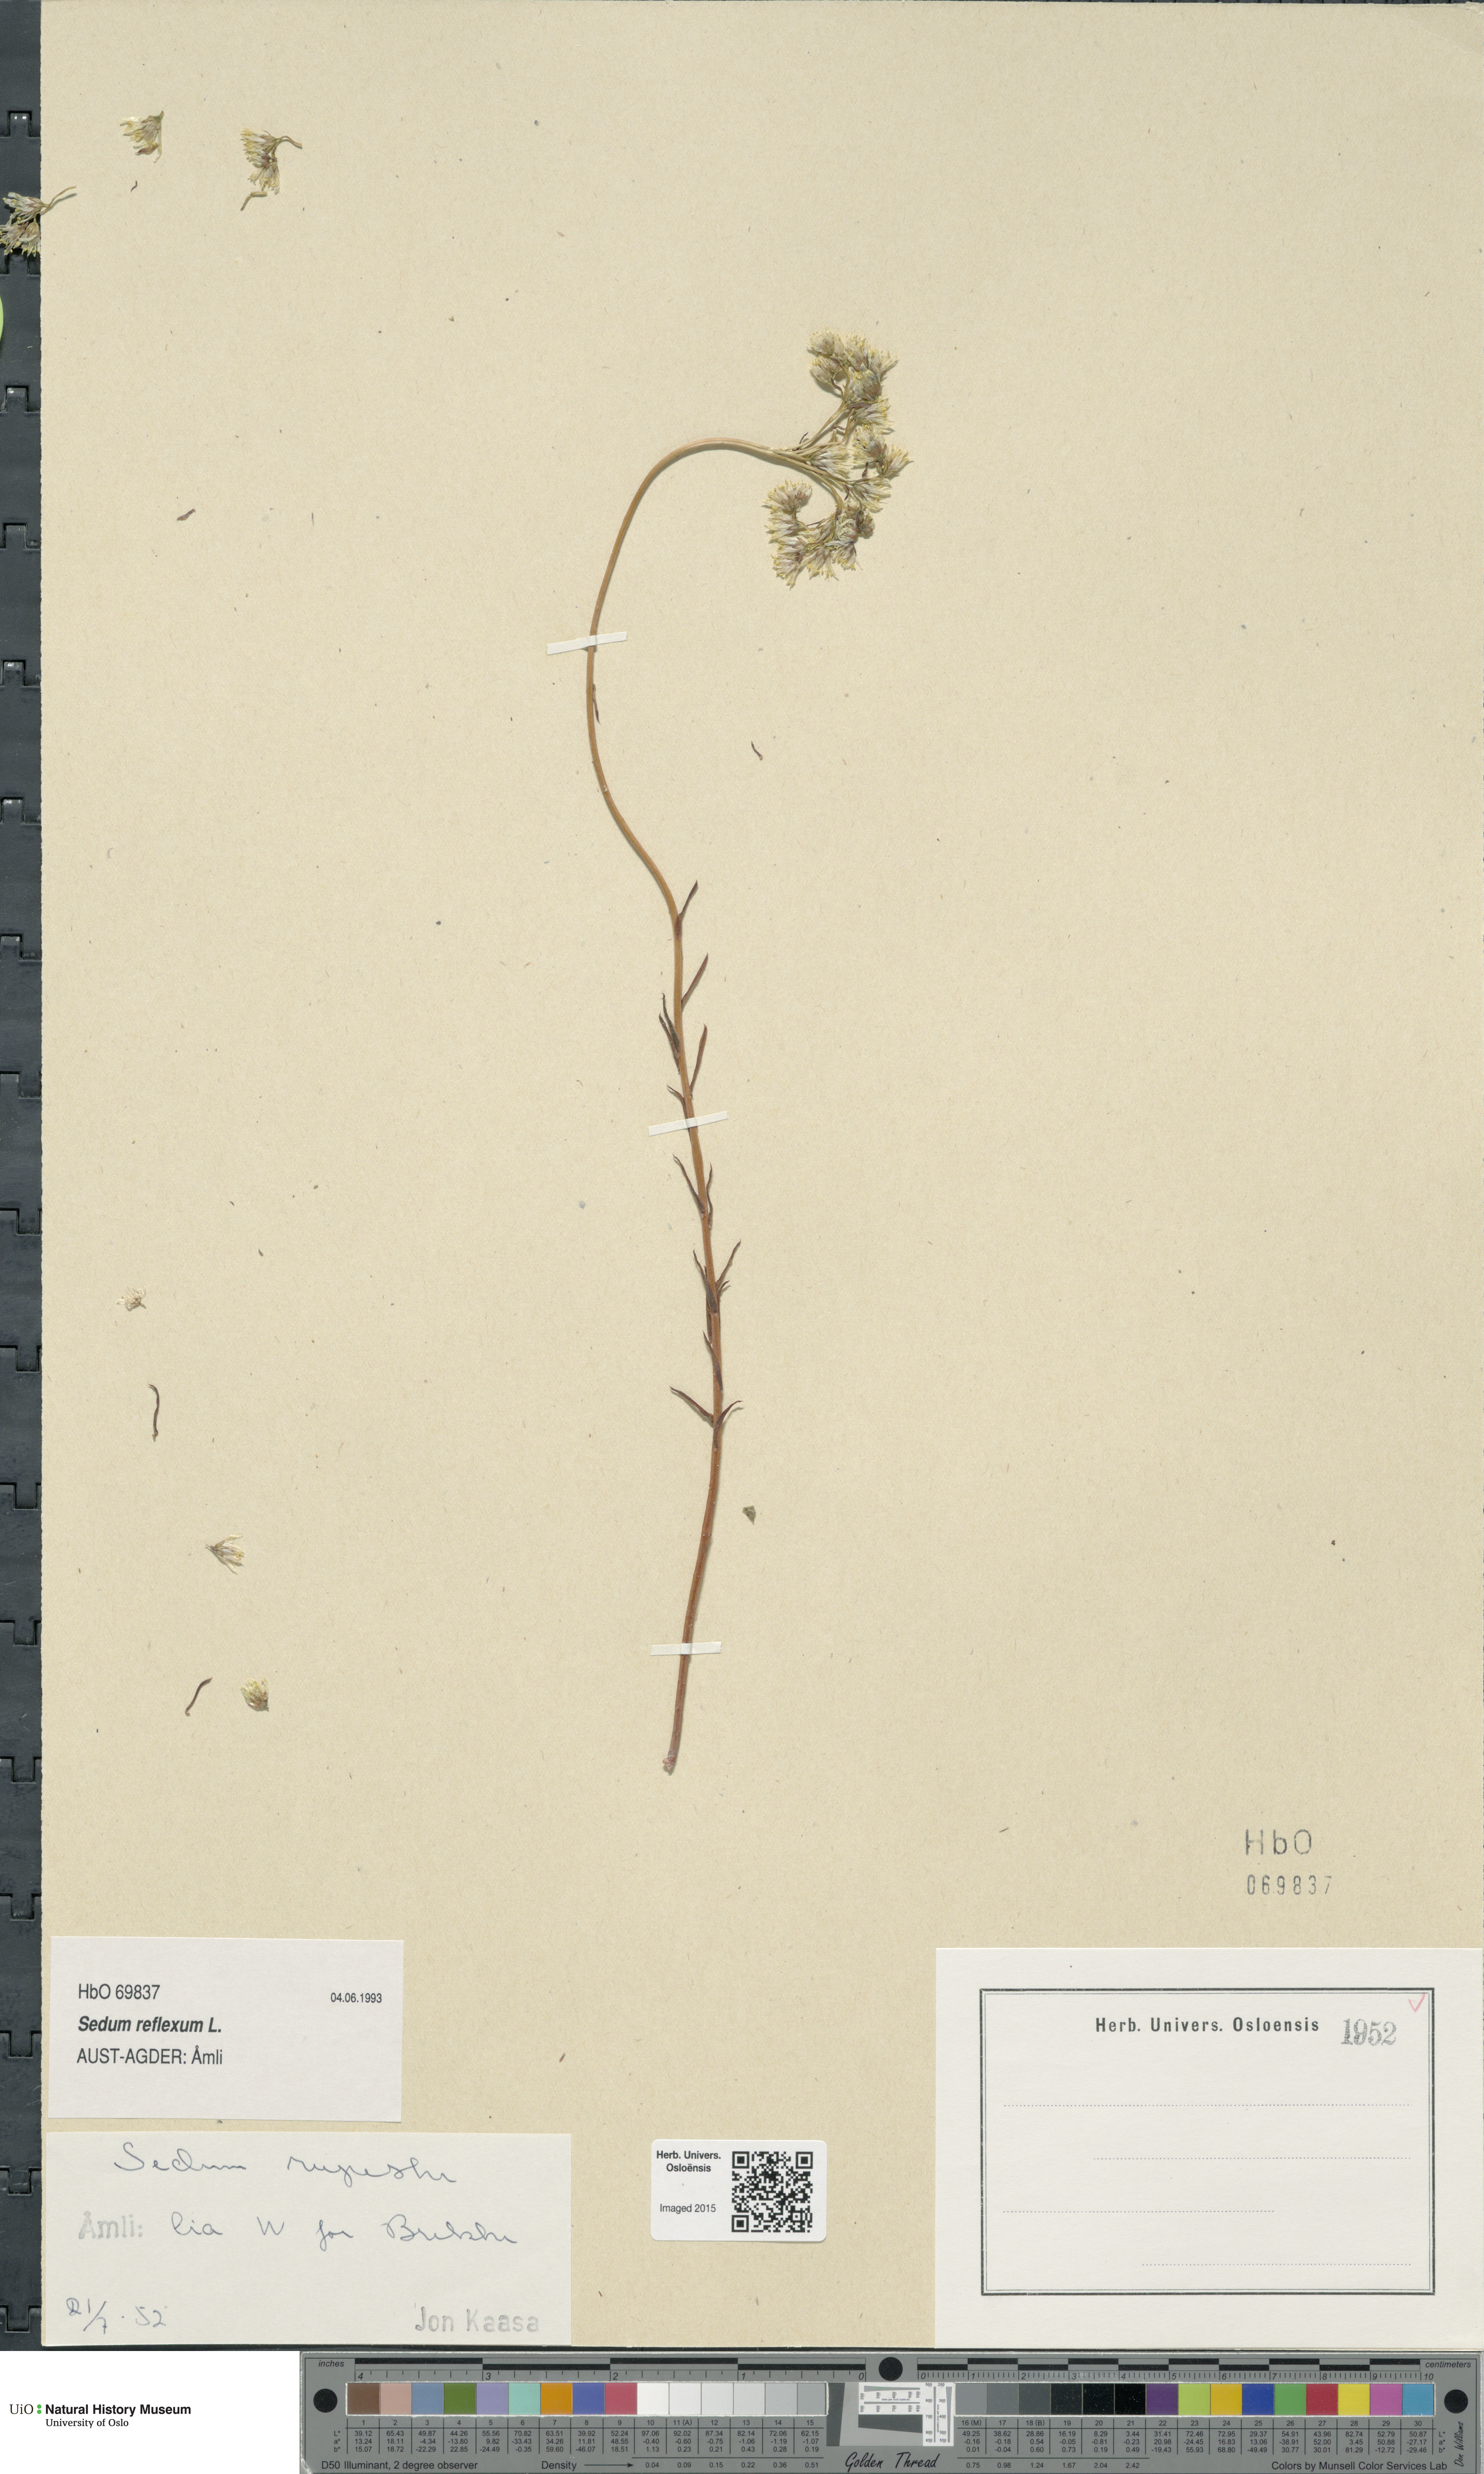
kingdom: Plantae
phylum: Tracheophyta
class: Magnoliopsida
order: Saxifragales
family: Crassulaceae
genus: Petrosedum
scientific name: Petrosedum rupestre
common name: Jenny's stonecrop
